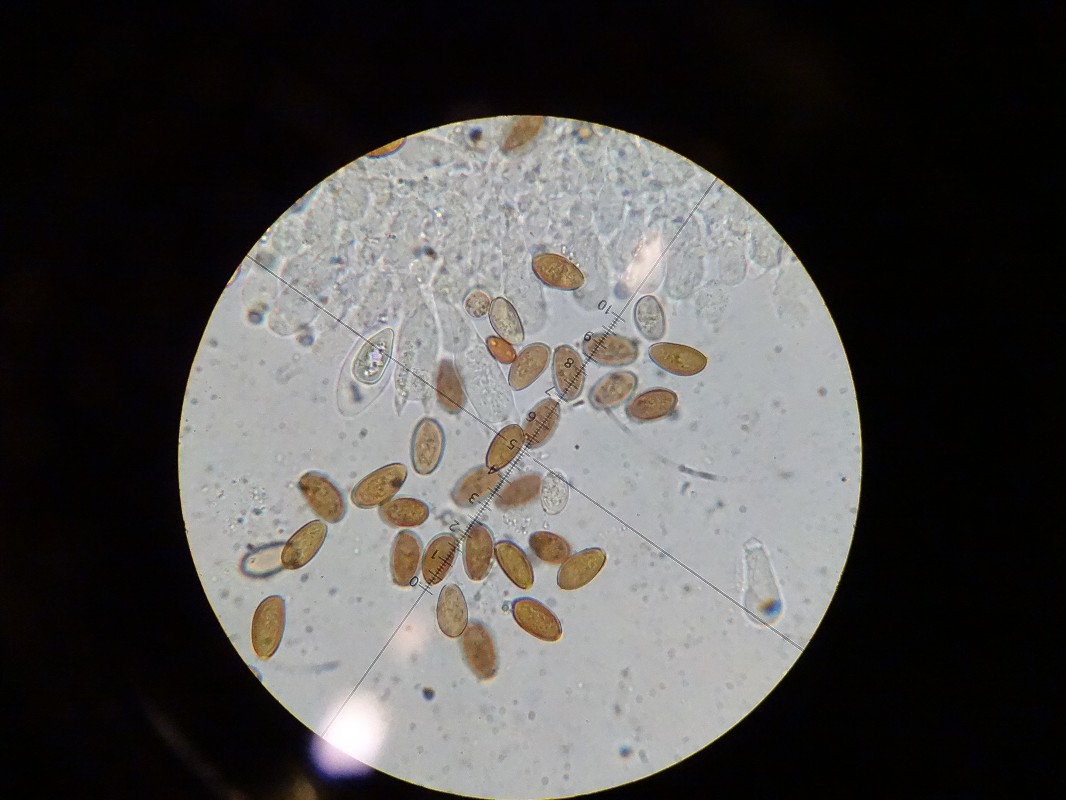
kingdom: Fungi
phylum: Basidiomycota
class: Agaricomycetes
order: Agaricales
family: Strophariaceae
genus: Protostropharia
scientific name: Protostropharia semiglobata
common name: halvkugleformet bredblad
